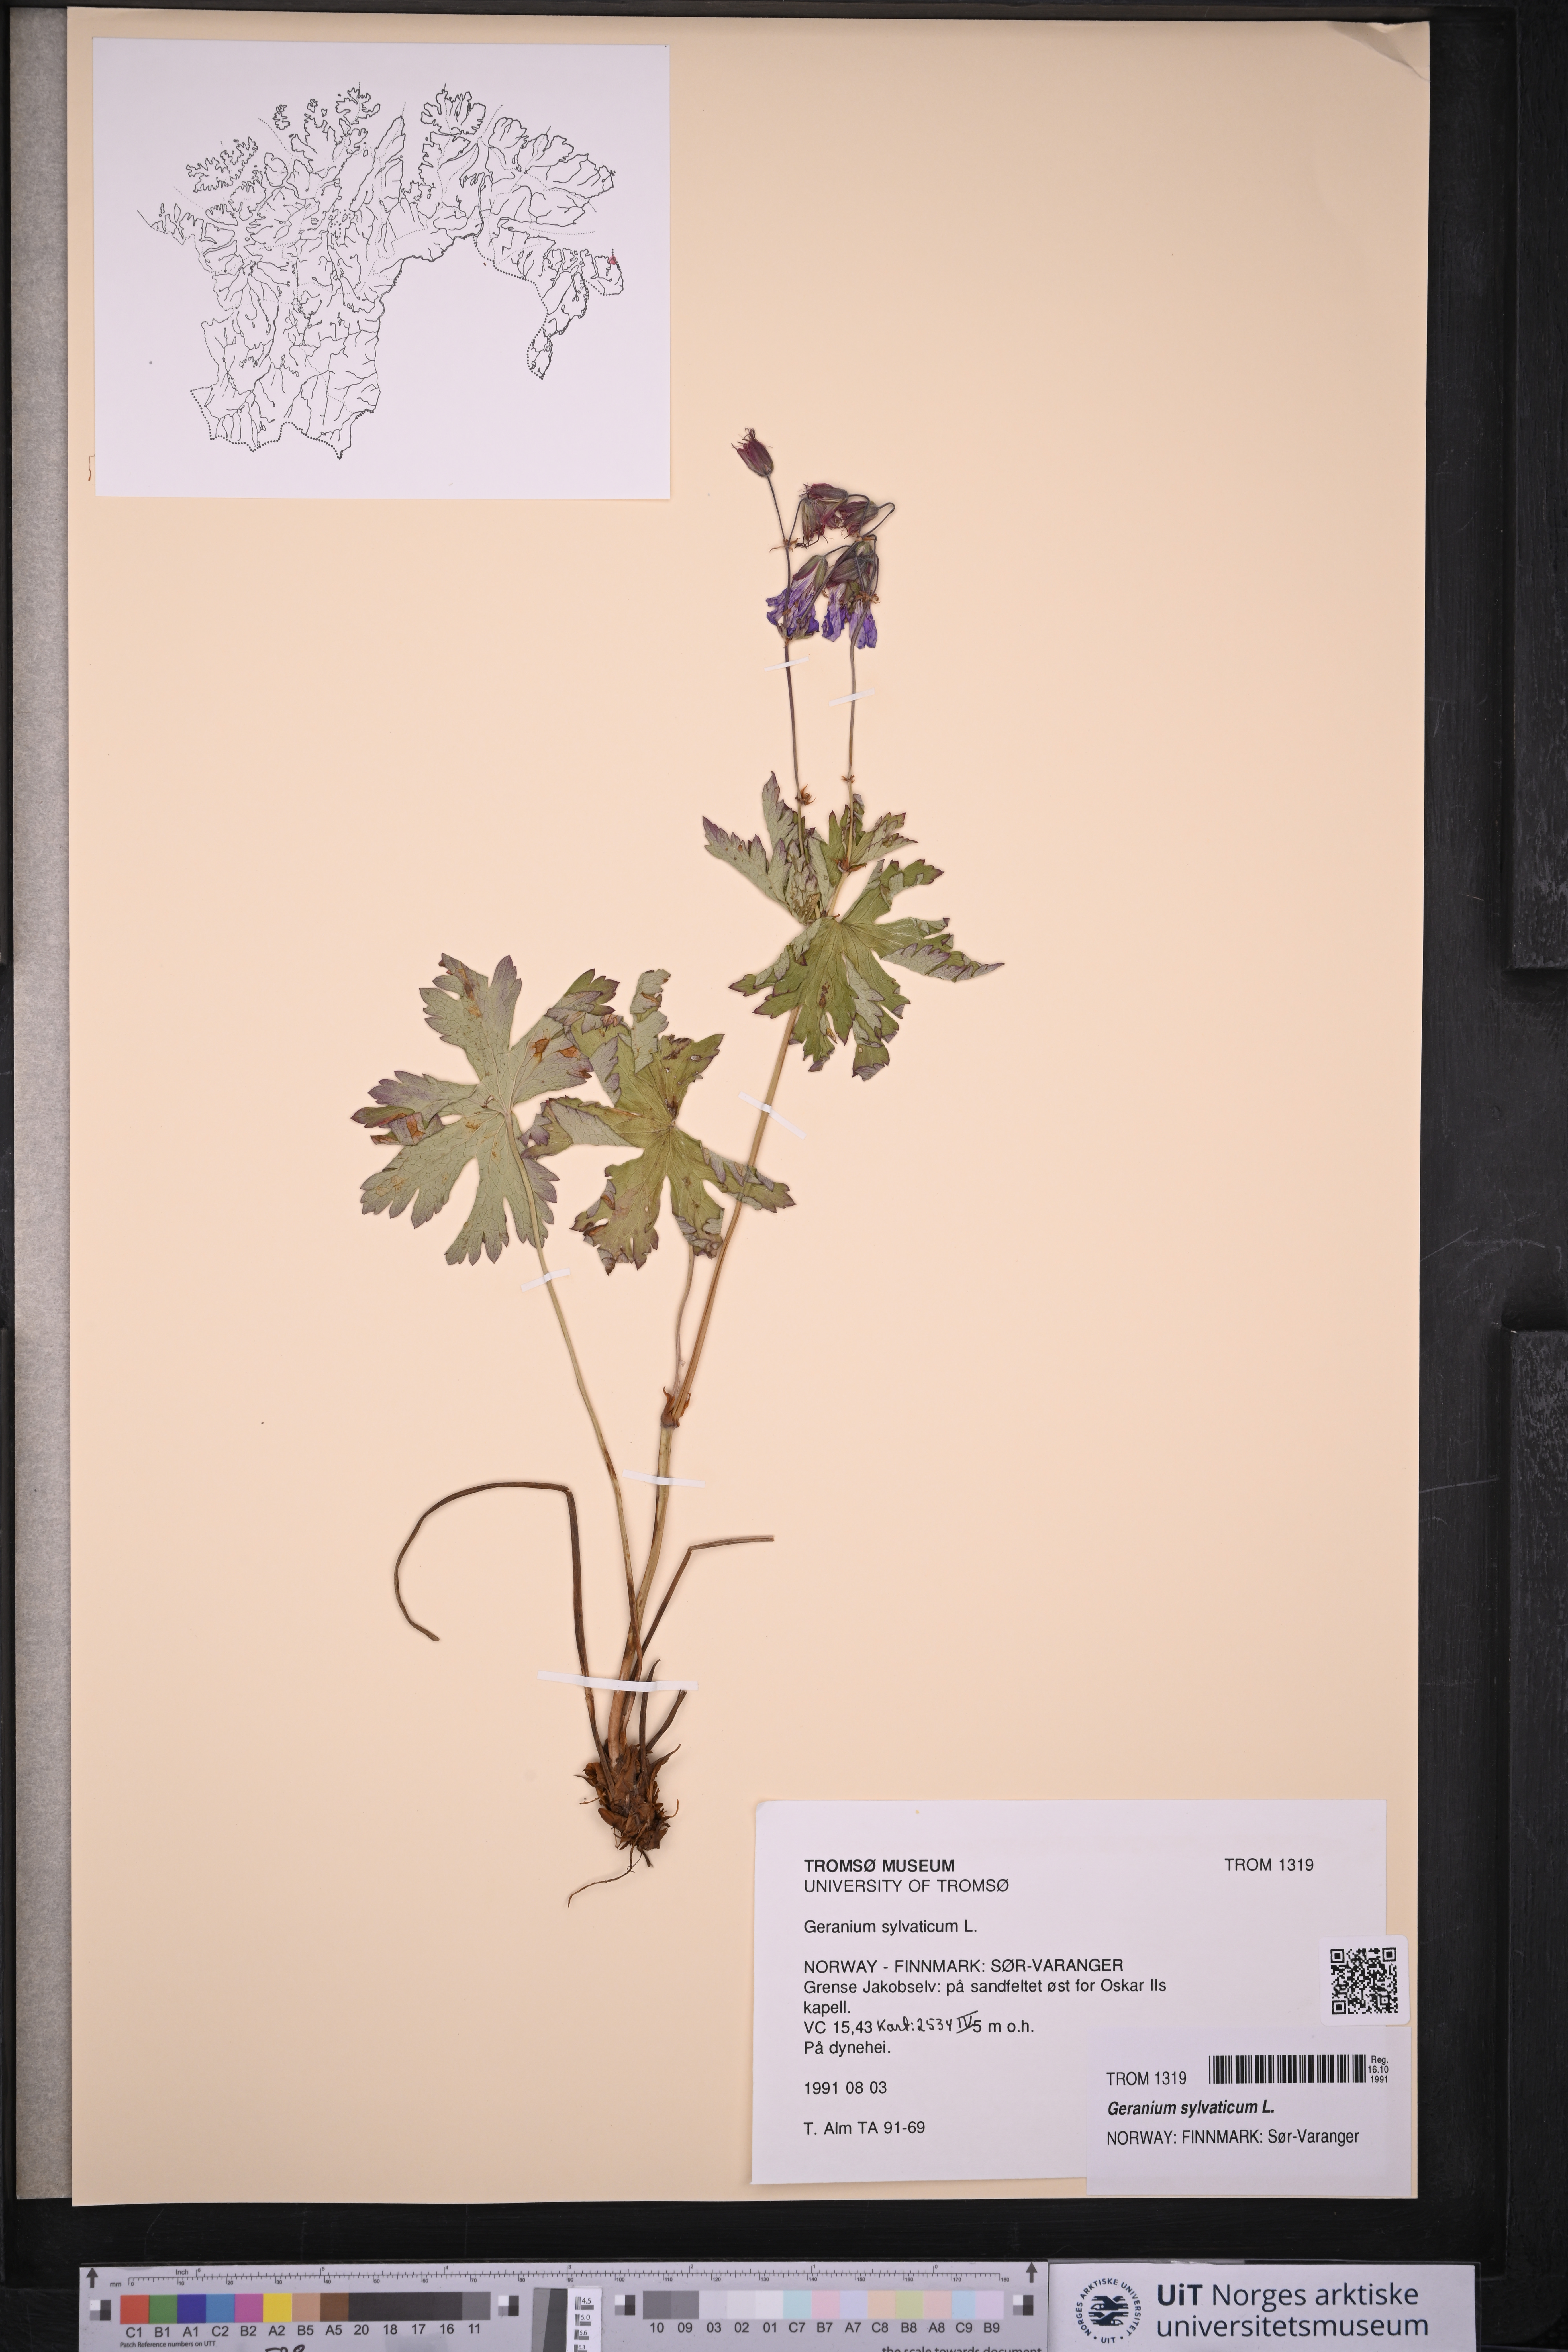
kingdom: Plantae
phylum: Tracheophyta
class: Magnoliopsida
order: Geraniales
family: Geraniaceae
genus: Geranium
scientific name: Geranium sylvaticum
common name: Wood crane's-bill
